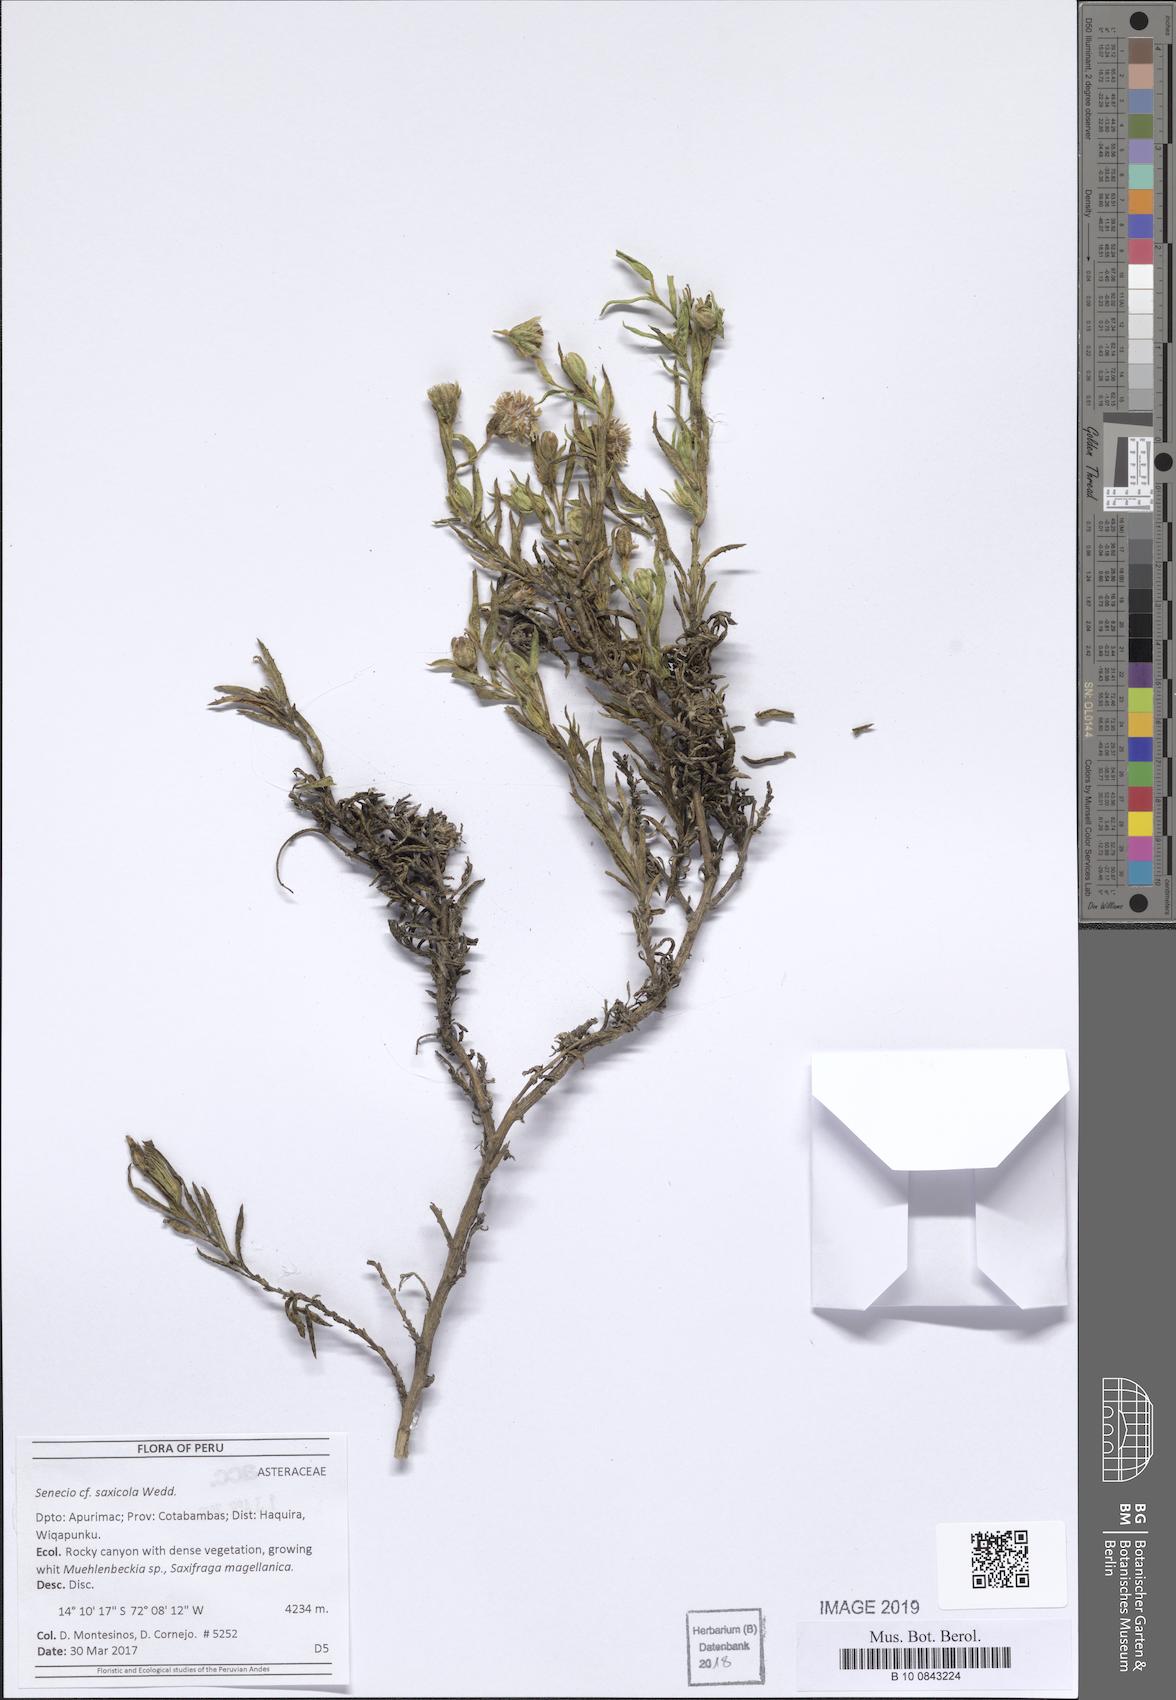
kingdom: Plantae
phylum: Tracheophyta
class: Magnoliopsida
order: Asterales
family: Asteraceae
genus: Senecio
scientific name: Senecio saxicolus
